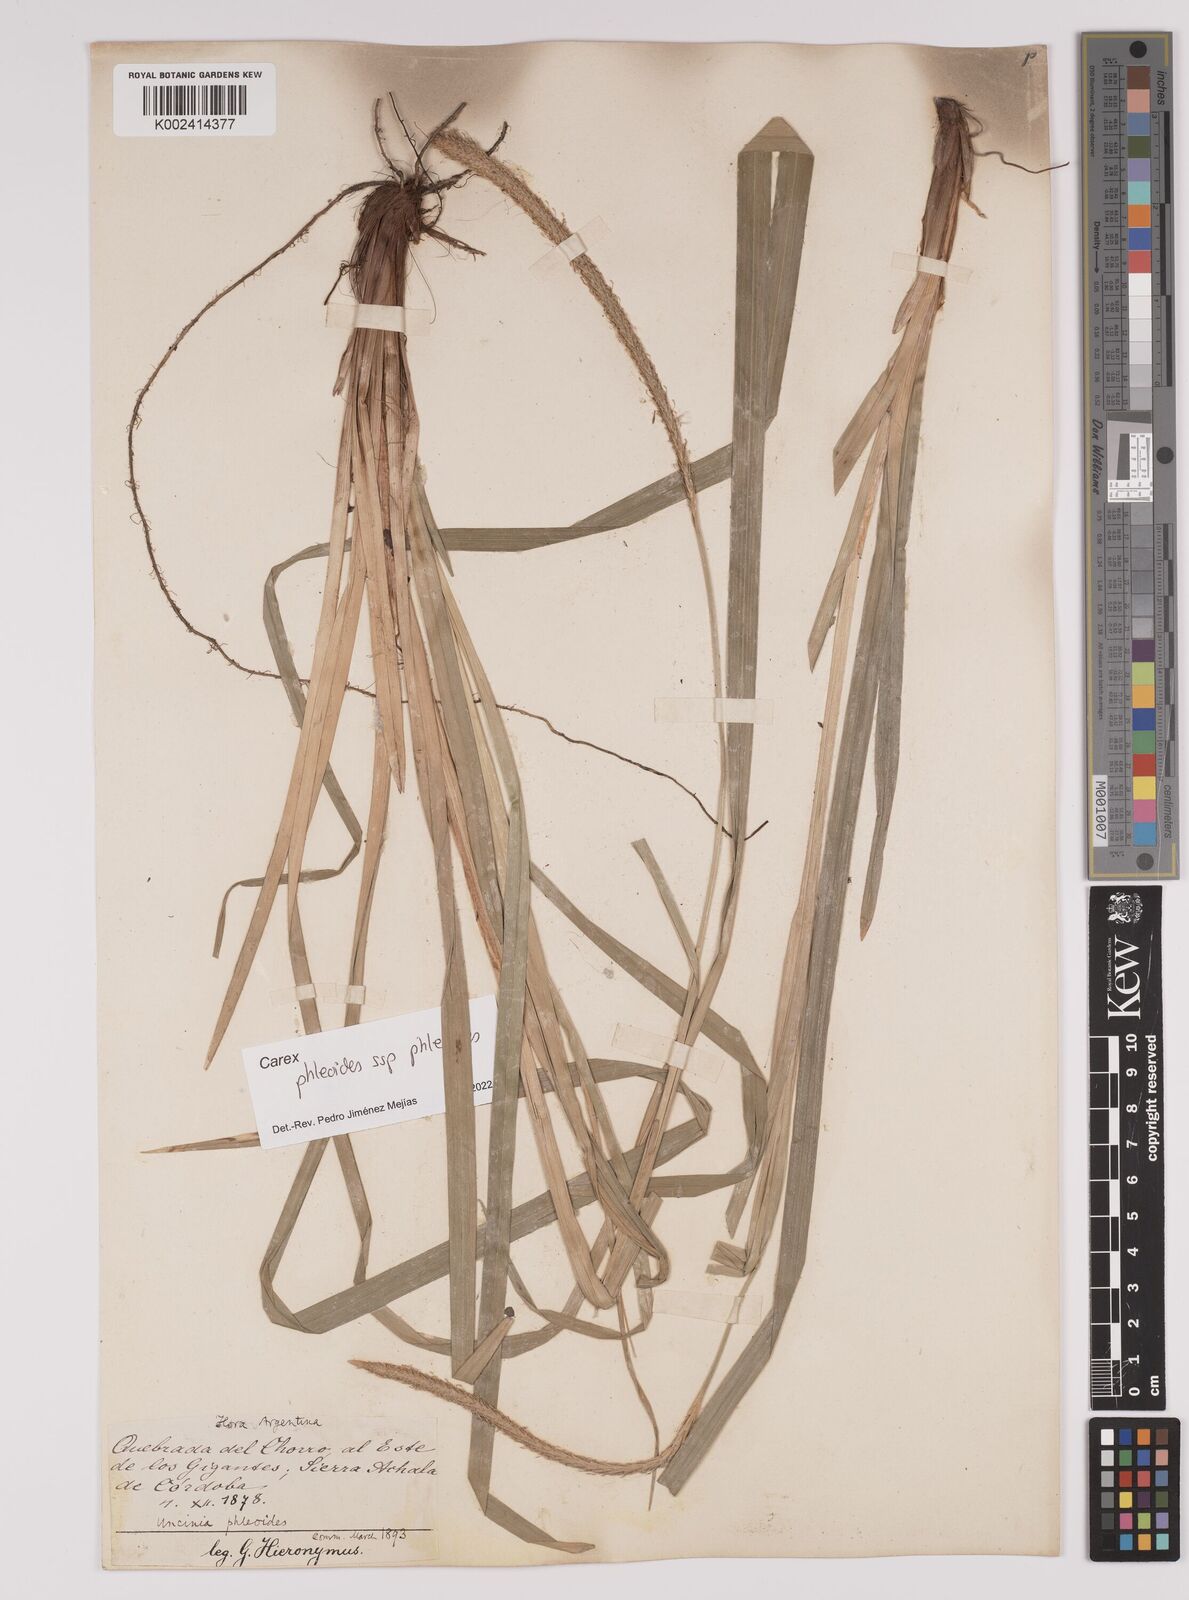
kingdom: Plantae
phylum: Tracheophyta
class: Liliopsida
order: Poales
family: Cyperaceae
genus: Carex
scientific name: Carex phleoides
